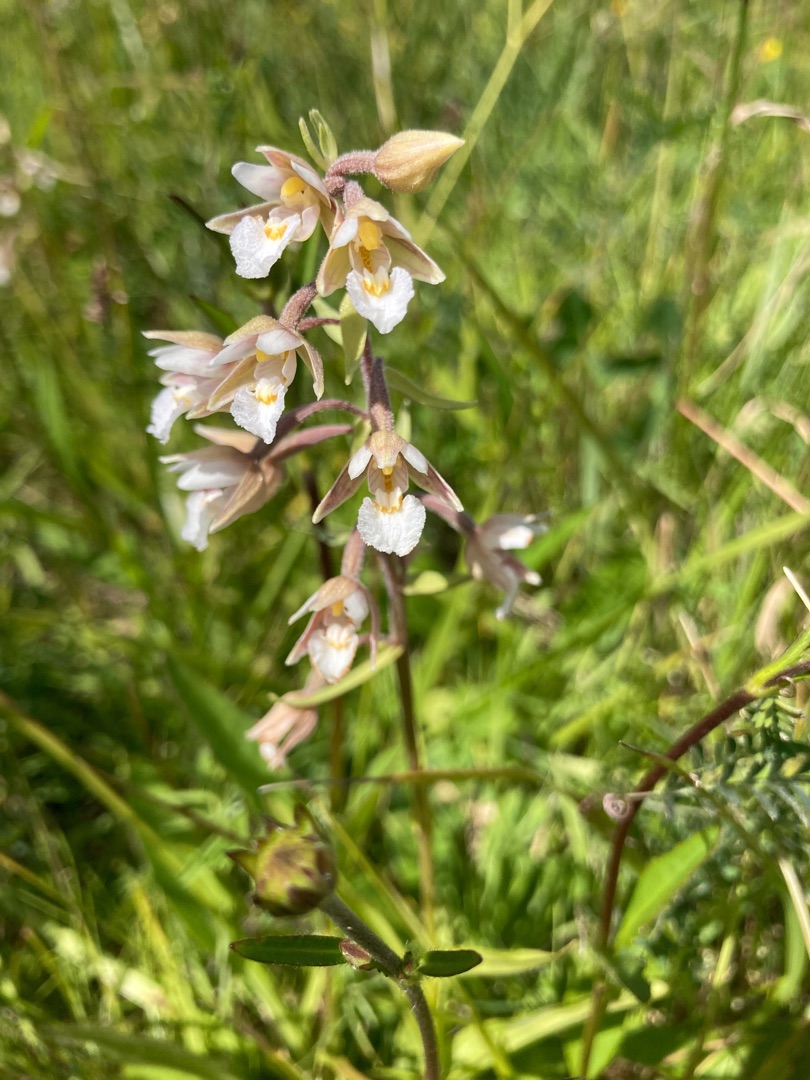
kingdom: Plantae
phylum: Tracheophyta
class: Liliopsida
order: Asparagales
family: Orchidaceae
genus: Epipactis
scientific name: Epipactis palustris
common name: Sump-hullæbe
